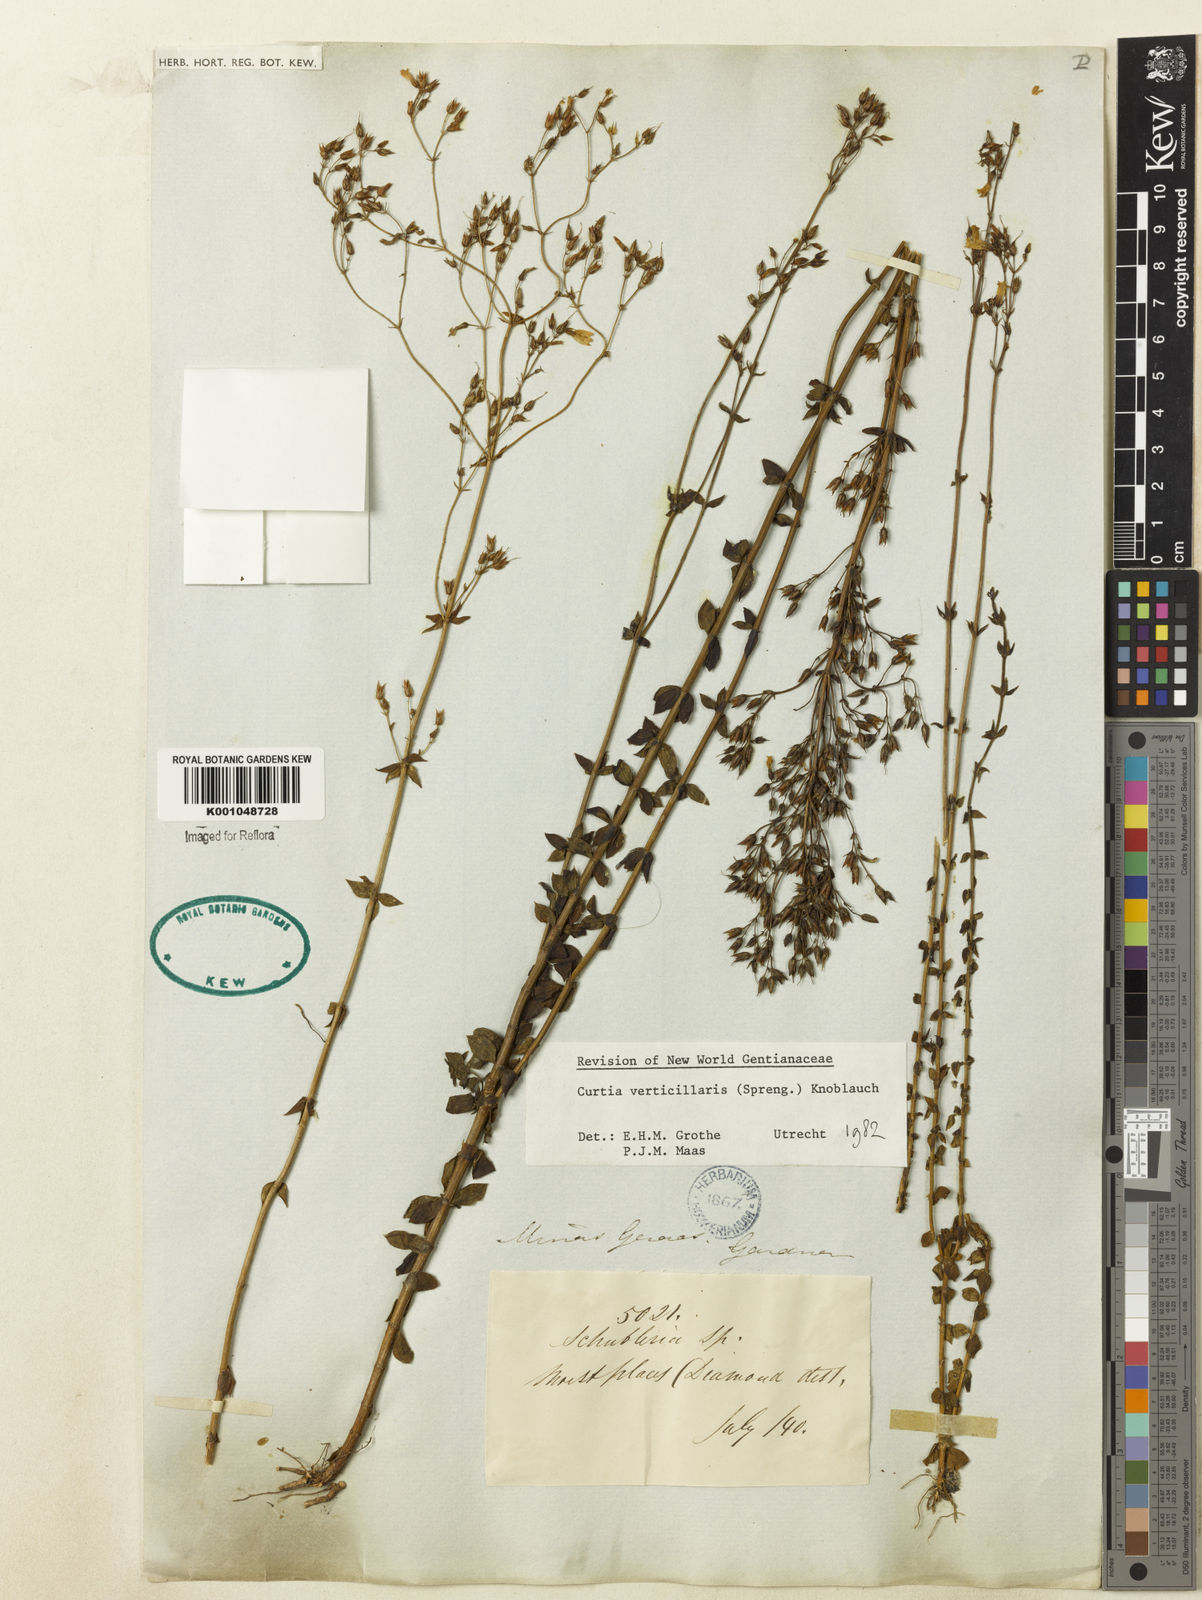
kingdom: Plantae
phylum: Tracheophyta
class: Magnoliopsida
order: Gentianales
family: Gentianaceae
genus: Curtia
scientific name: Curtia verticillaris
